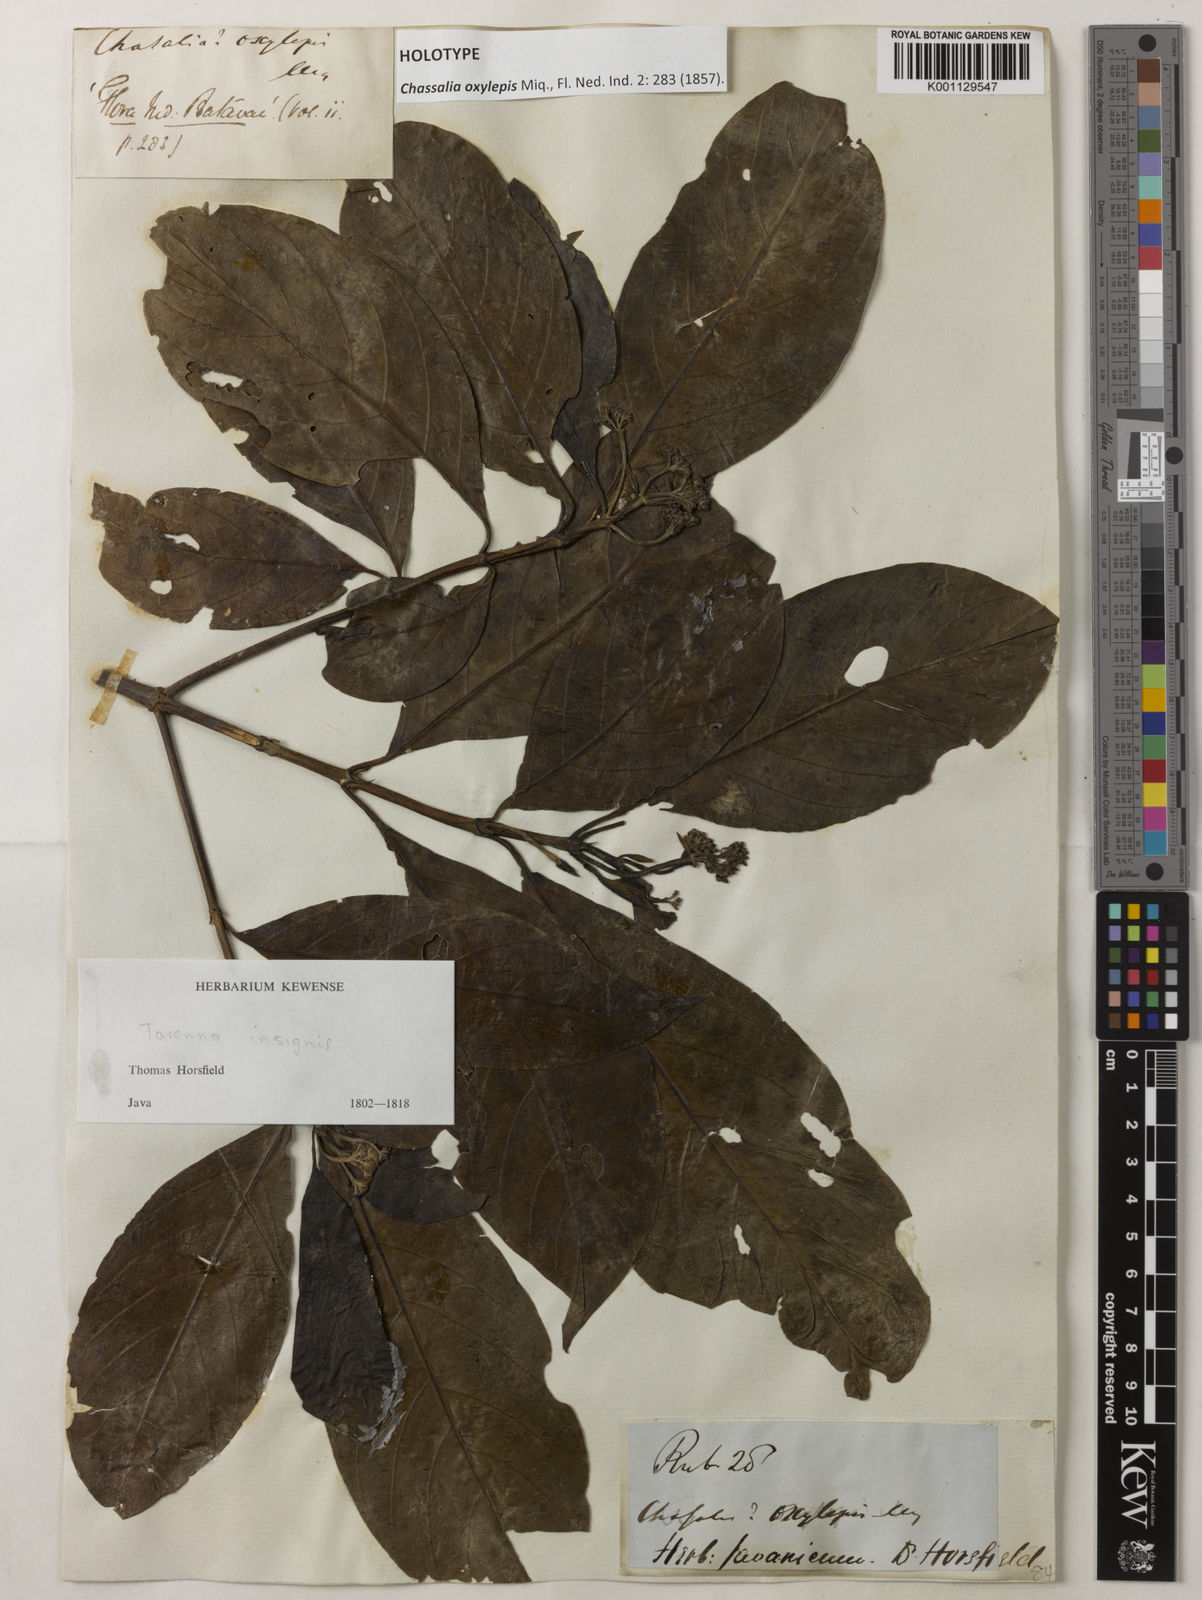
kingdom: Plantae
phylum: Tracheophyta
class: Magnoliopsida
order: Gentianales
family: Rubiaceae
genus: Tarenna
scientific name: Tarenna odorata
